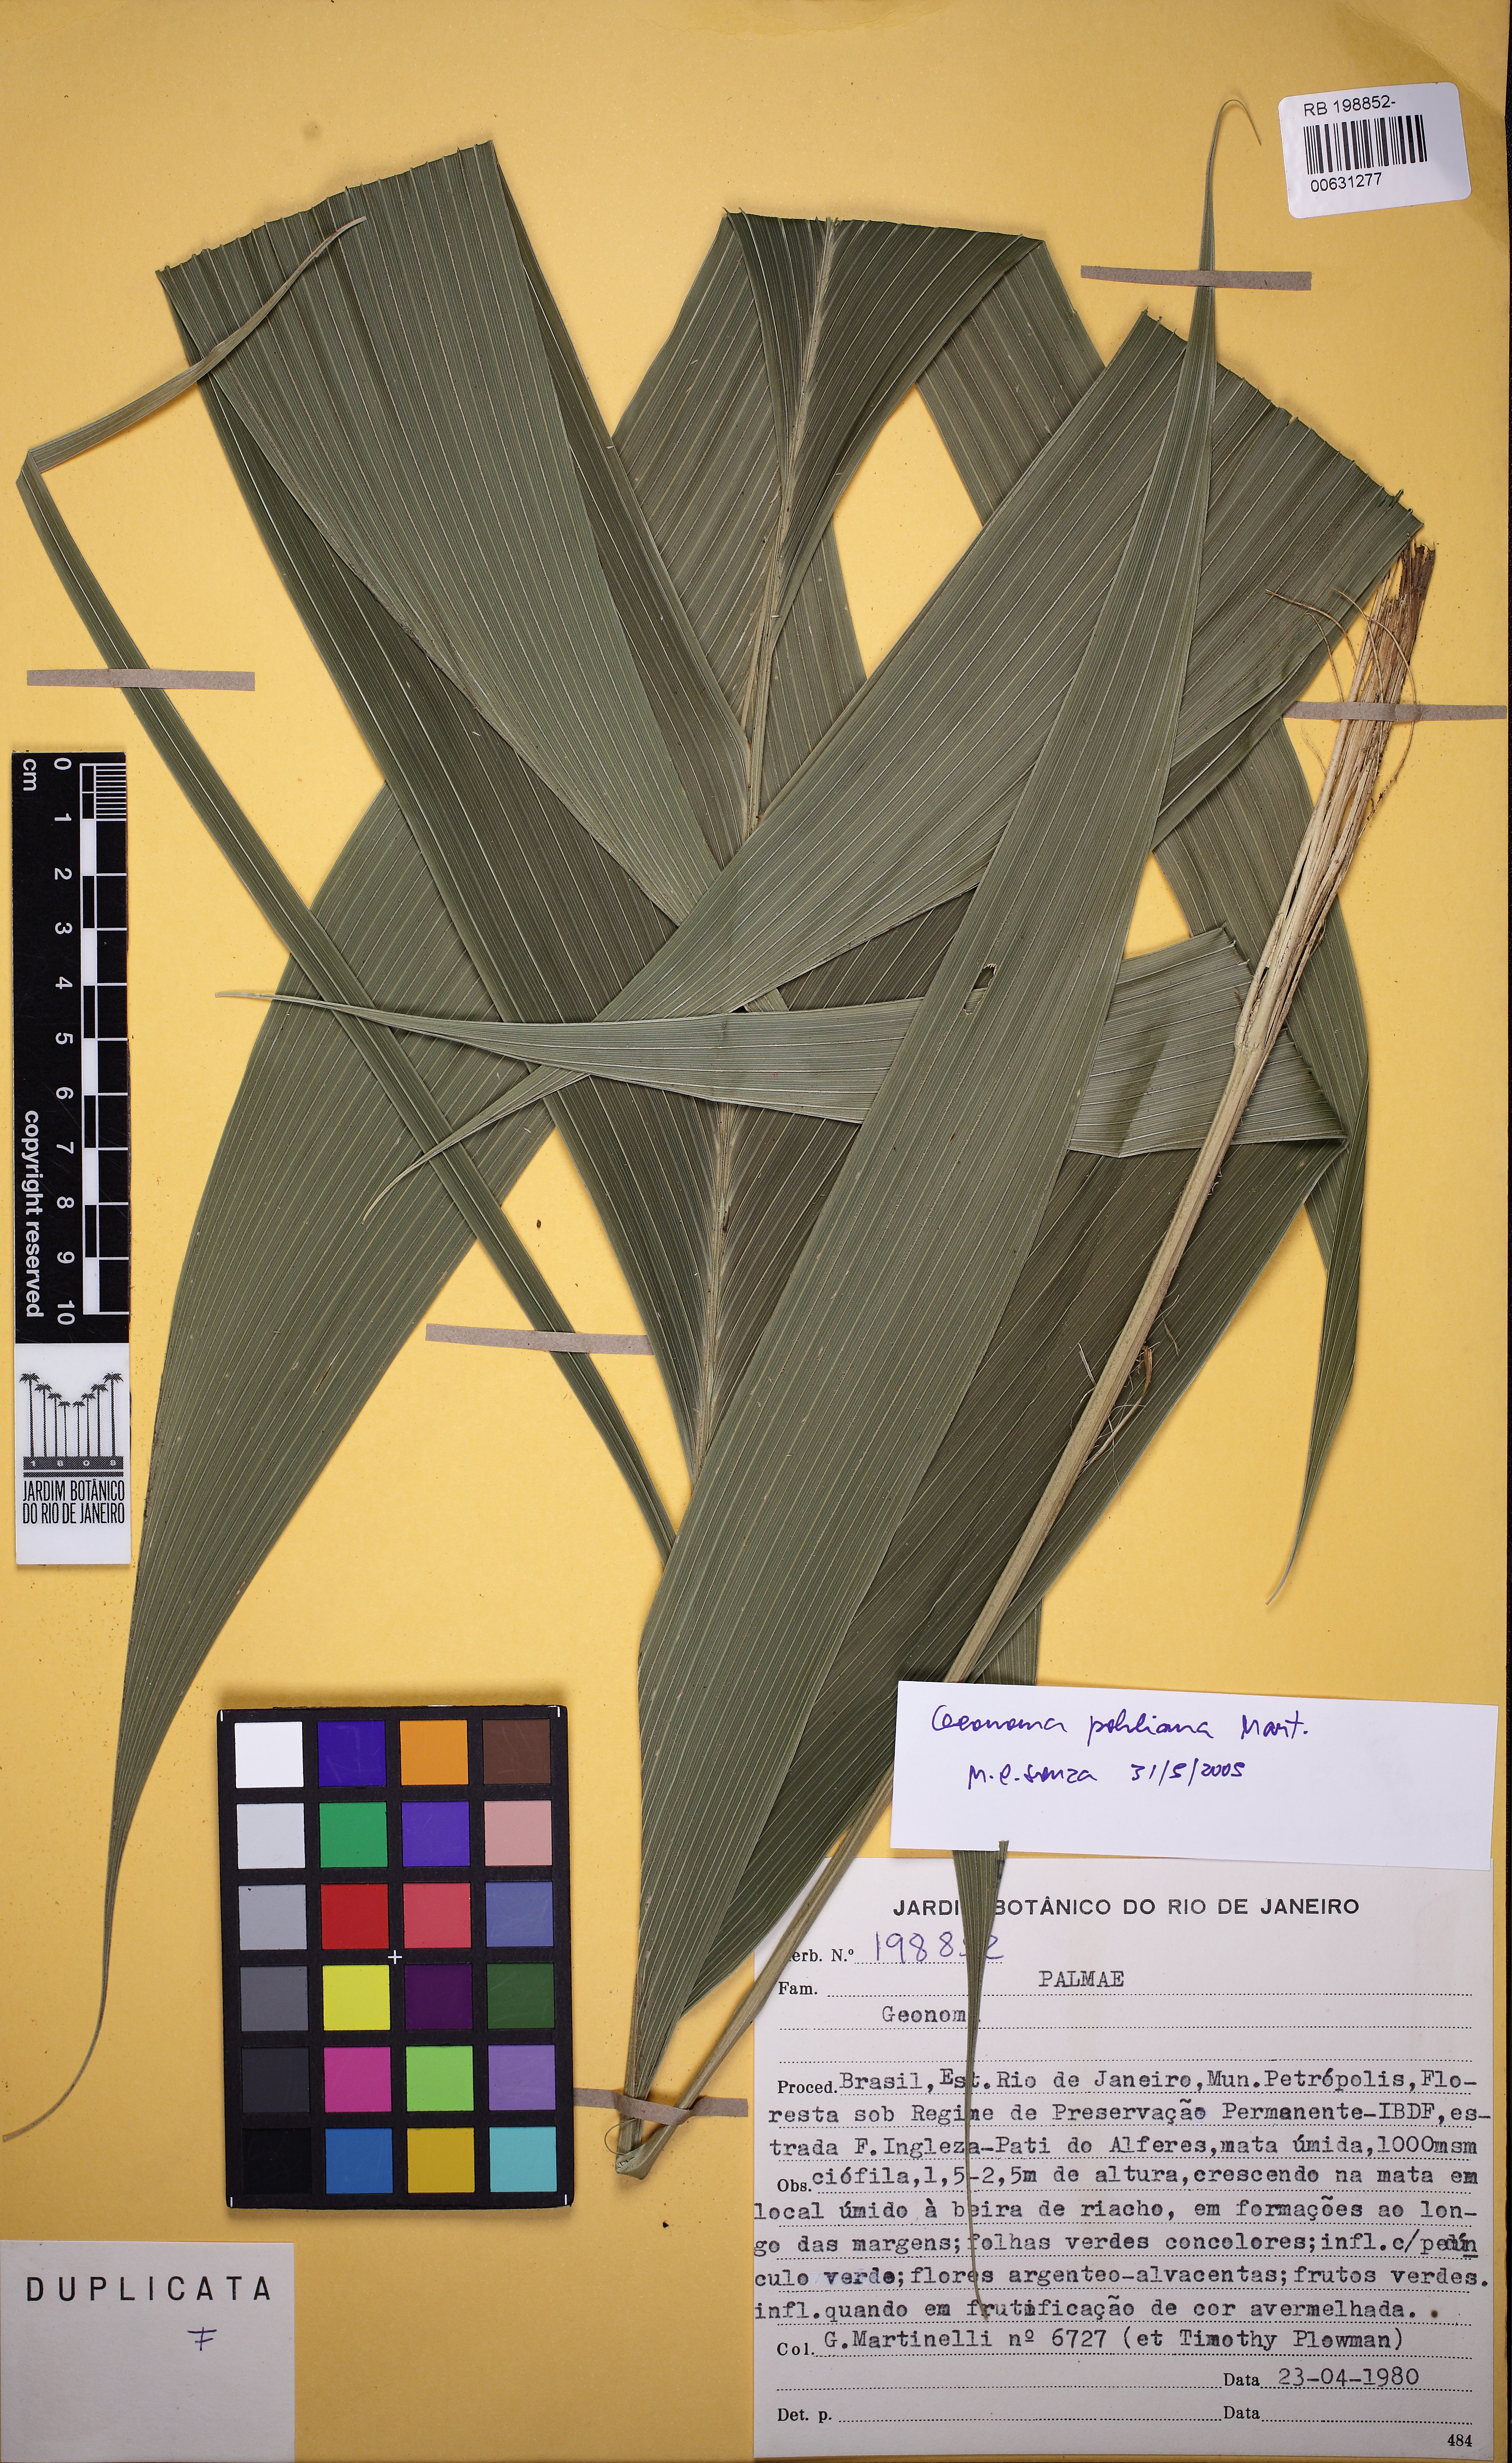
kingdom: Plantae
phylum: Tracheophyta
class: Liliopsida
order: Arecales
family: Arecaceae
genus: Geonoma
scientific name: Geonoma pohliana
